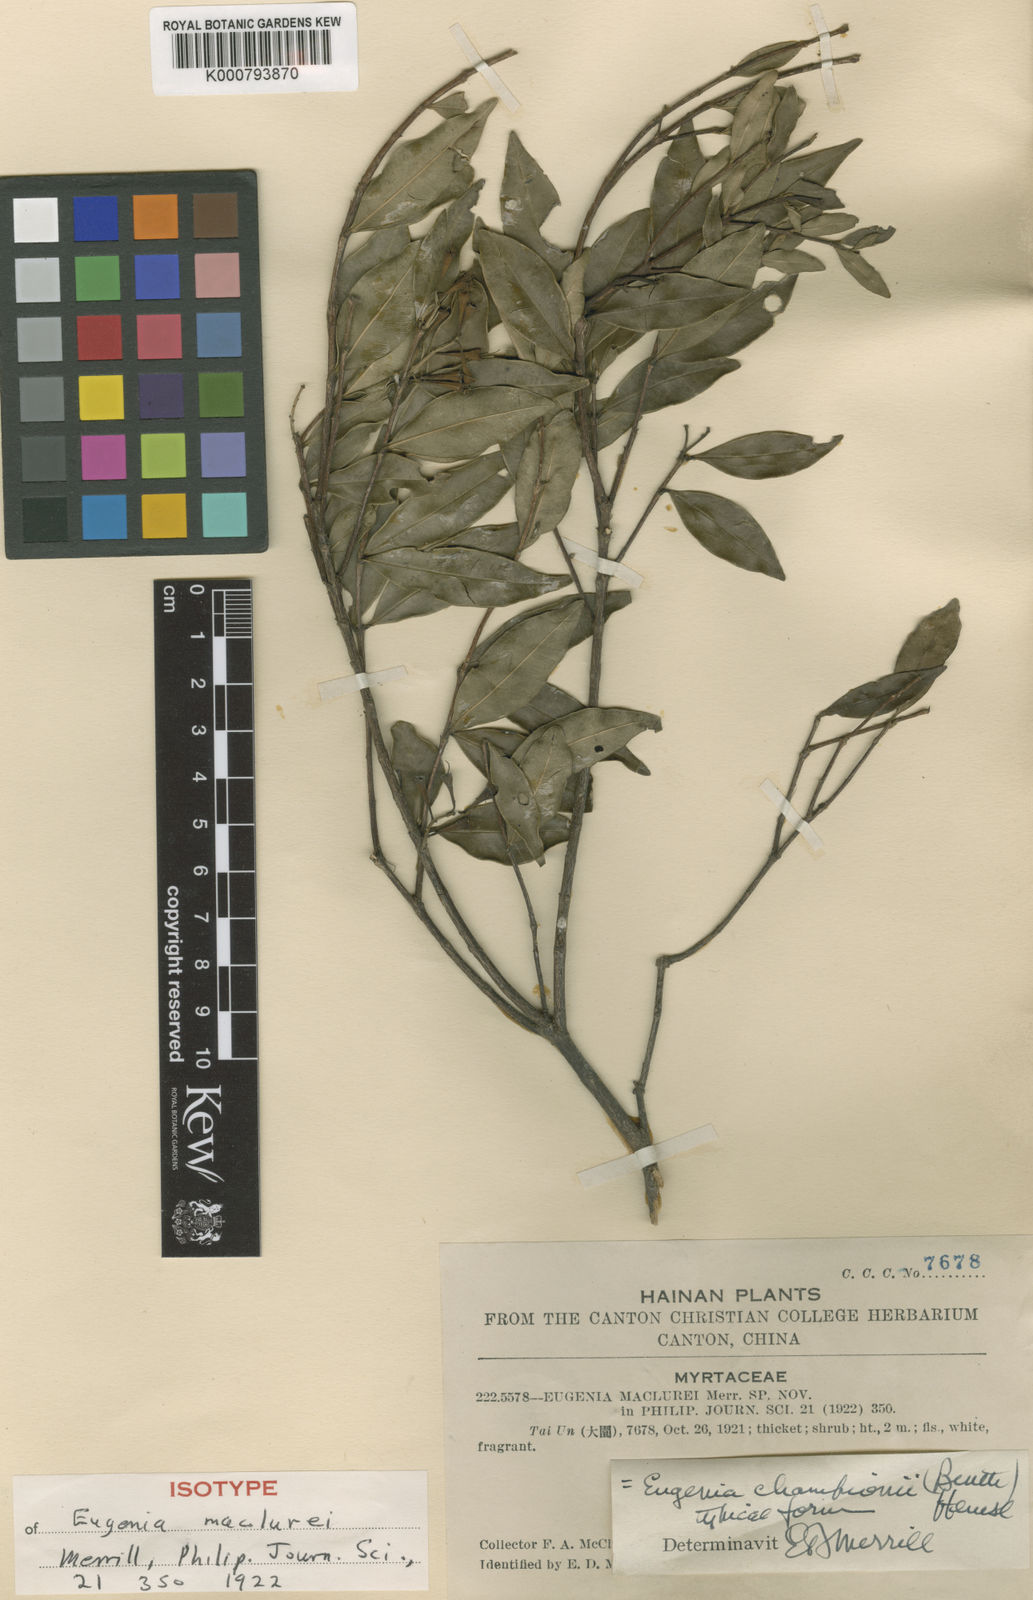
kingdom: Plantae
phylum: Tracheophyta
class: Magnoliopsida
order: Myrtales
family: Myrtaceae
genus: Syzygium
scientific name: Syzygium championii
